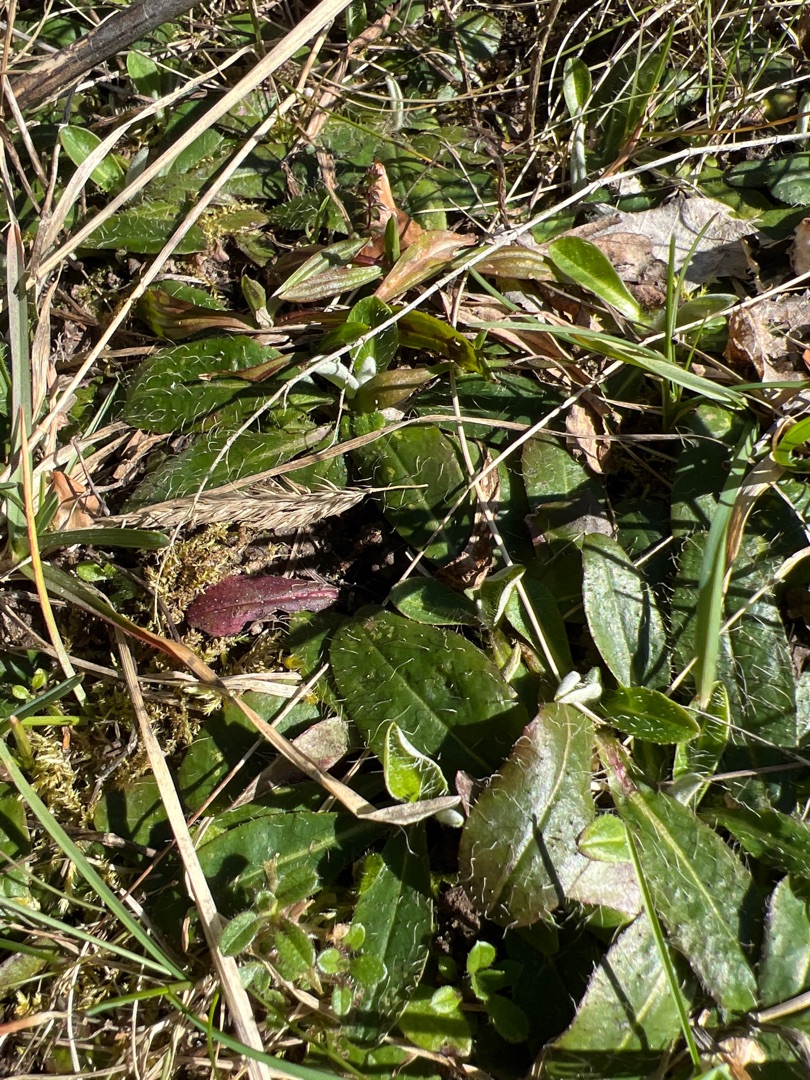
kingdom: Plantae
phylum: Tracheophyta
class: Magnoliopsida
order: Asterales
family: Asteraceae
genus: Pilosella
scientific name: Pilosella officinarum
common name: Håret høgeurt
